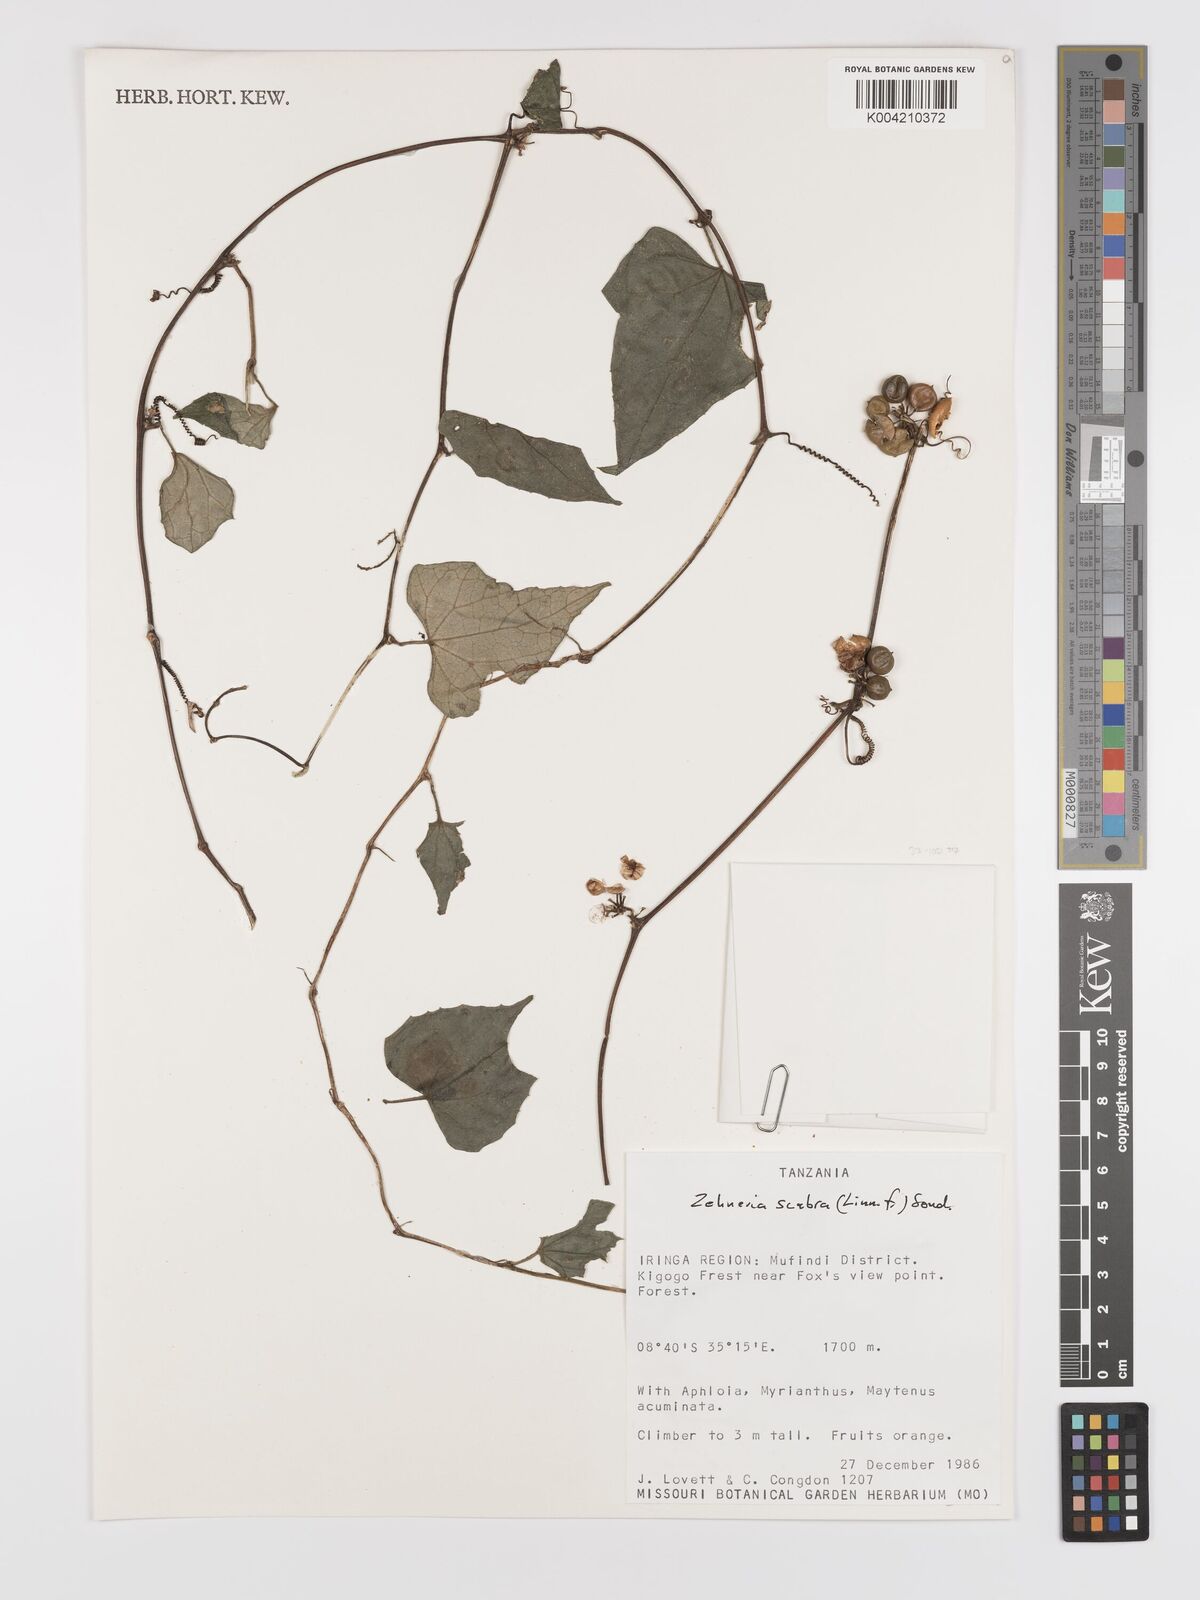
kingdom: Plantae
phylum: Tracheophyta
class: Magnoliopsida
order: Cucurbitales
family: Cucurbitaceae
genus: Zehneria
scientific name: Zehneria emirnensis
